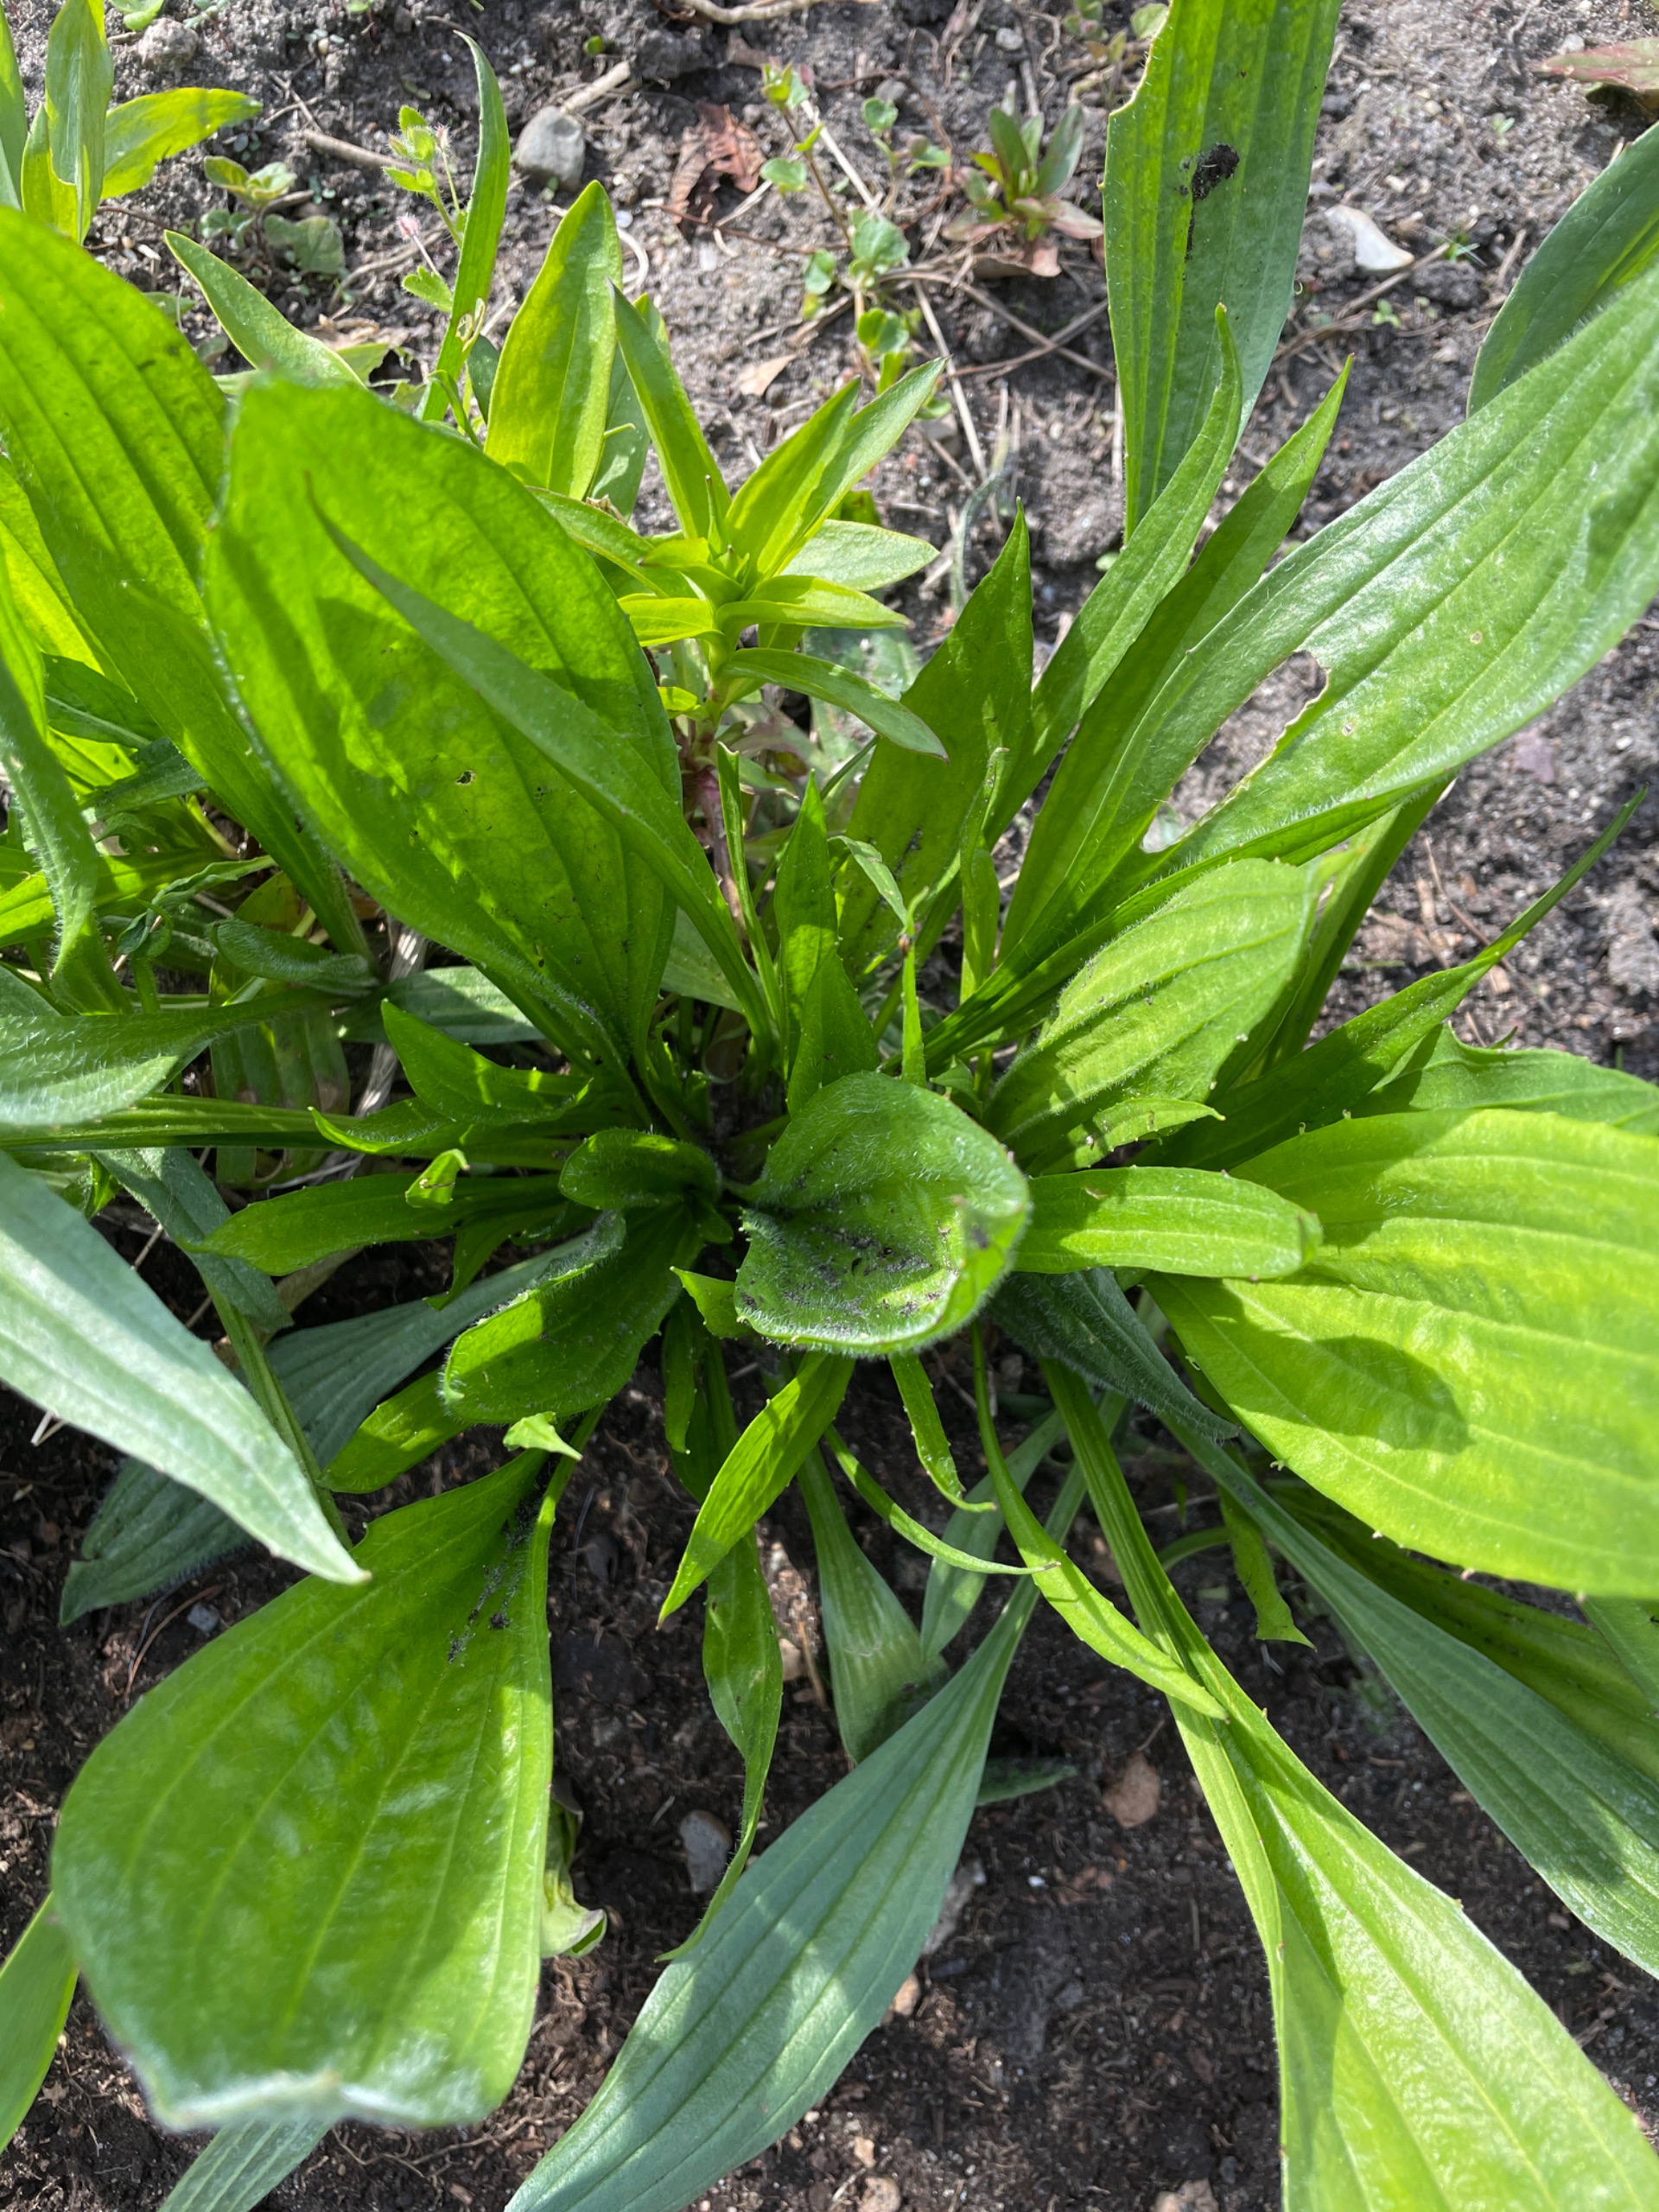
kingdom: Plantae
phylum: Tracheophyta
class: Magnoliopsida
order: Lamiales
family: Plantaginaceae
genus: Plantago
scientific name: Plantago lanceolata
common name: Lancet-vejbred
